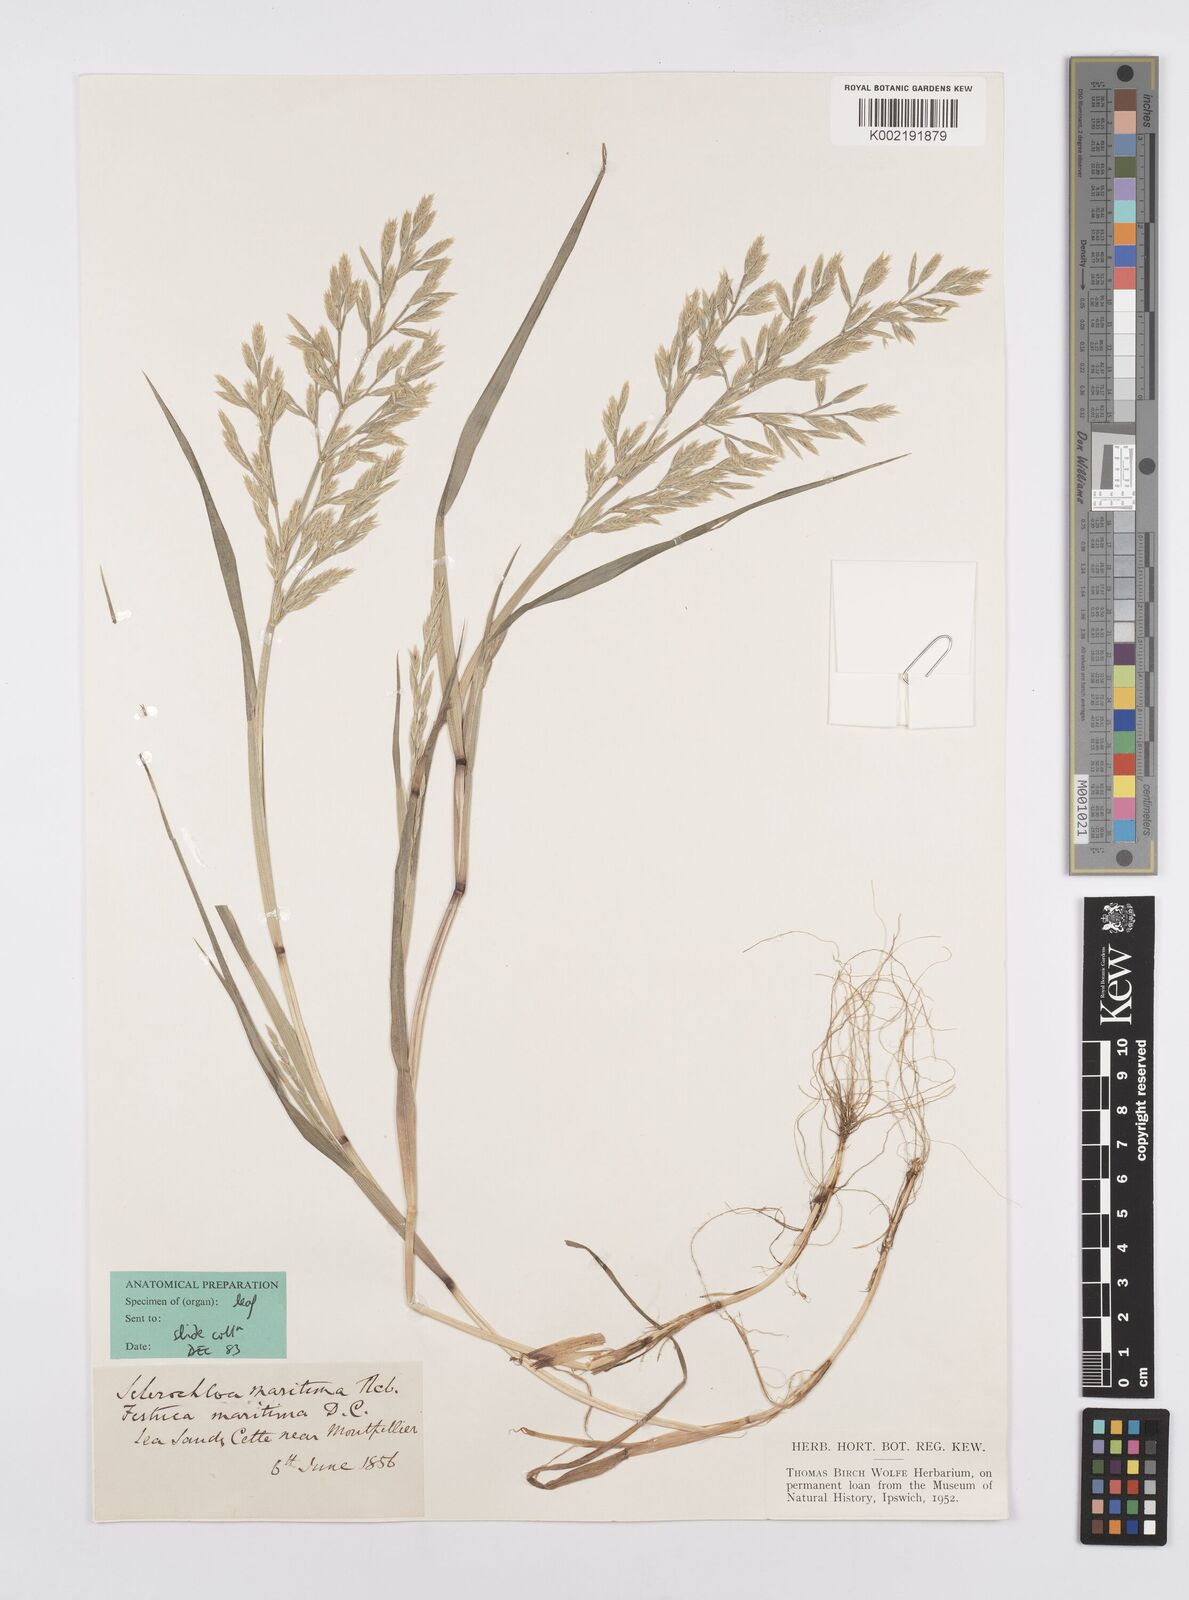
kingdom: Plantae
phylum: Tracheophyta
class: Liliopsida
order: Poales
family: Poaceae
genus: Cutandia
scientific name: Cutandia maritima
